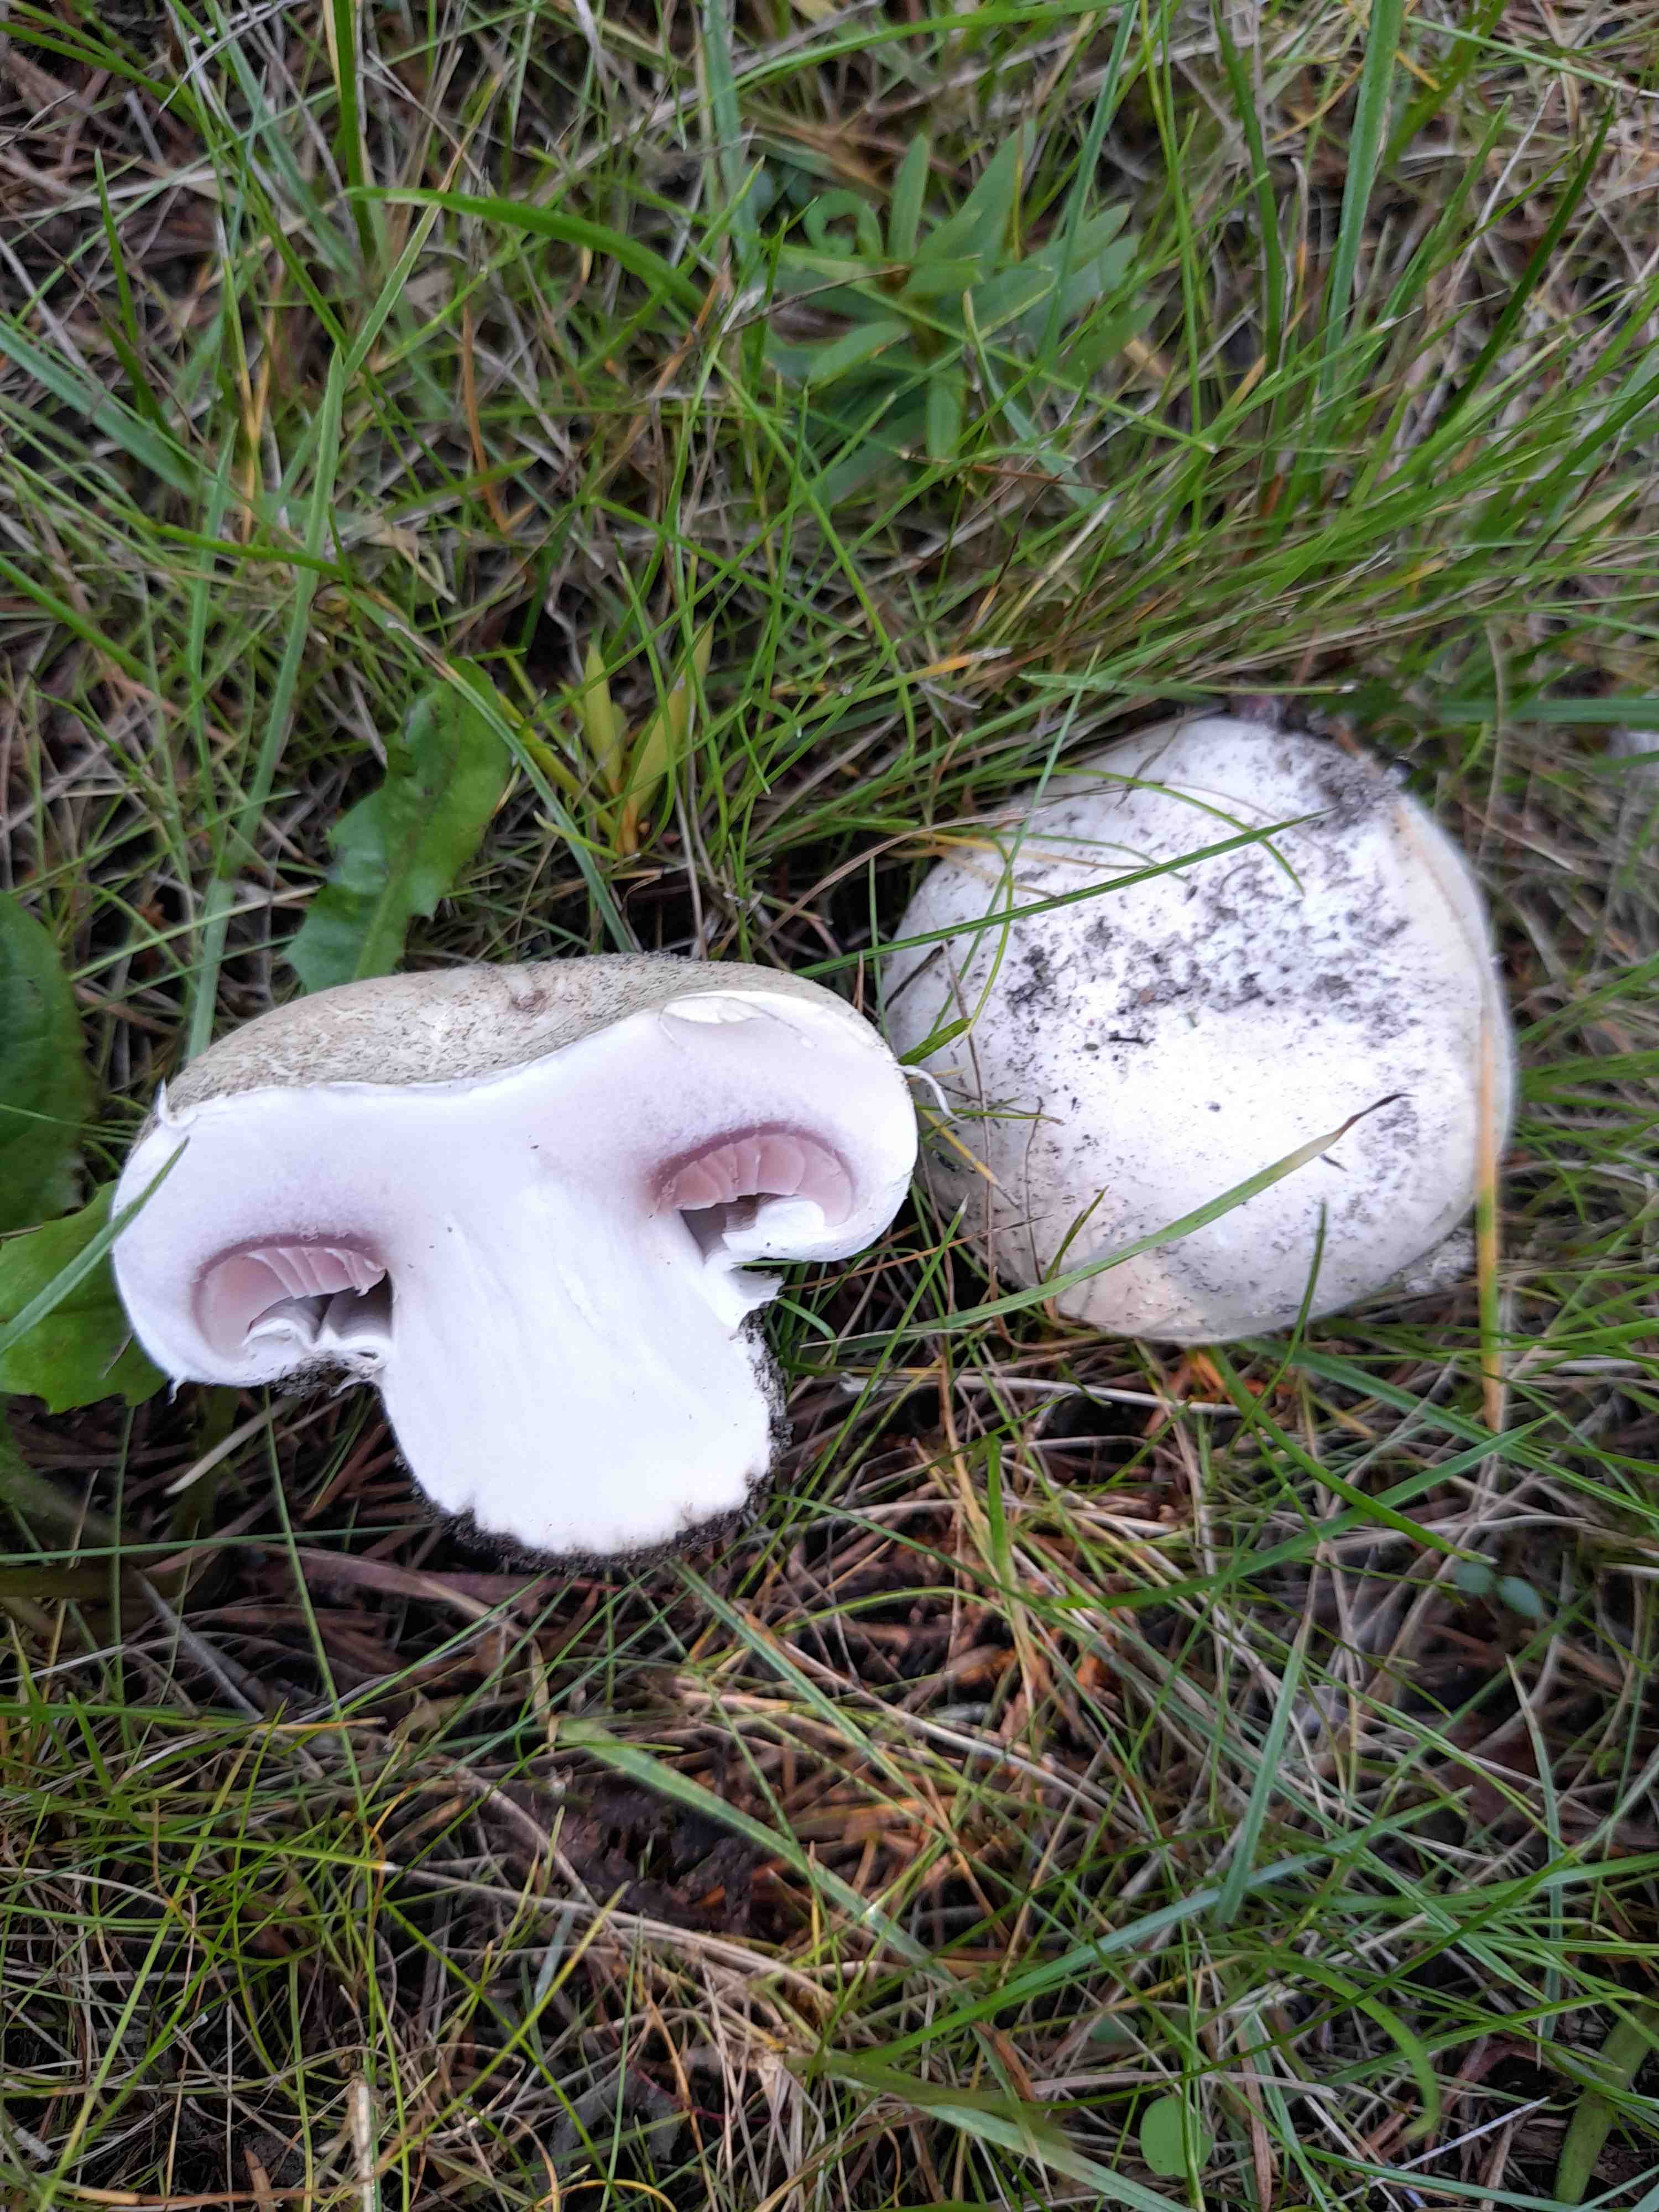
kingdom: Fungi
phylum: Basidiomycota
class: Agaricomycetes
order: Agaricales
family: Agaricaceae
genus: Agaricus
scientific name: Agaricus bitorquis
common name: vej-champignon
